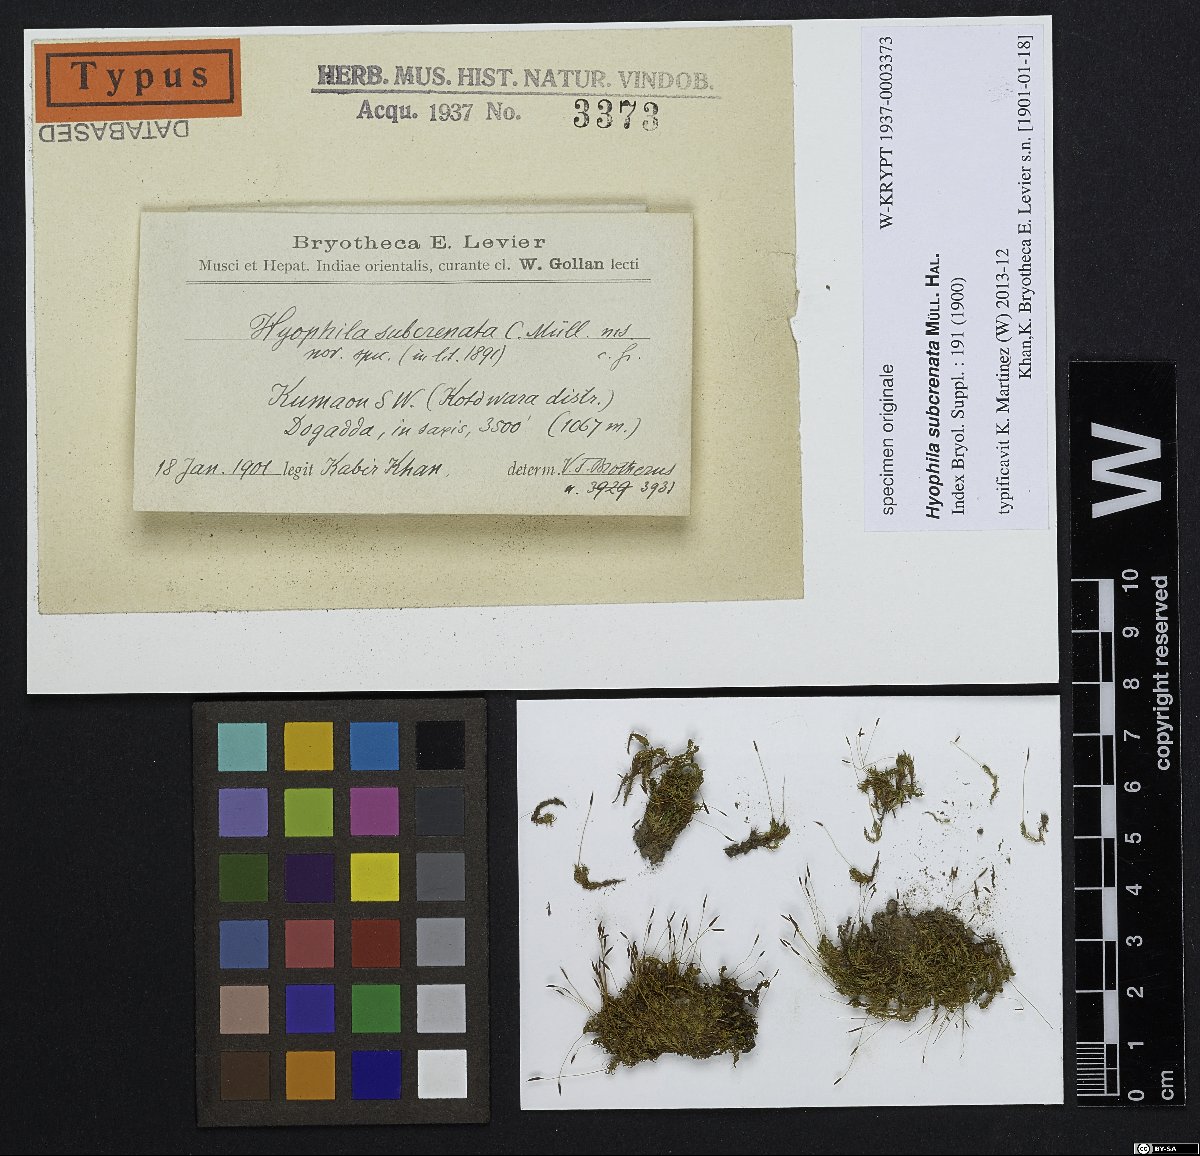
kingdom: Plantae
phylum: Bryophyta
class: Bryopsida
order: Pottiales
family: Pottiaceae
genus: Hyophila
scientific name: Hyophila involuta
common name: Hyophila moss
